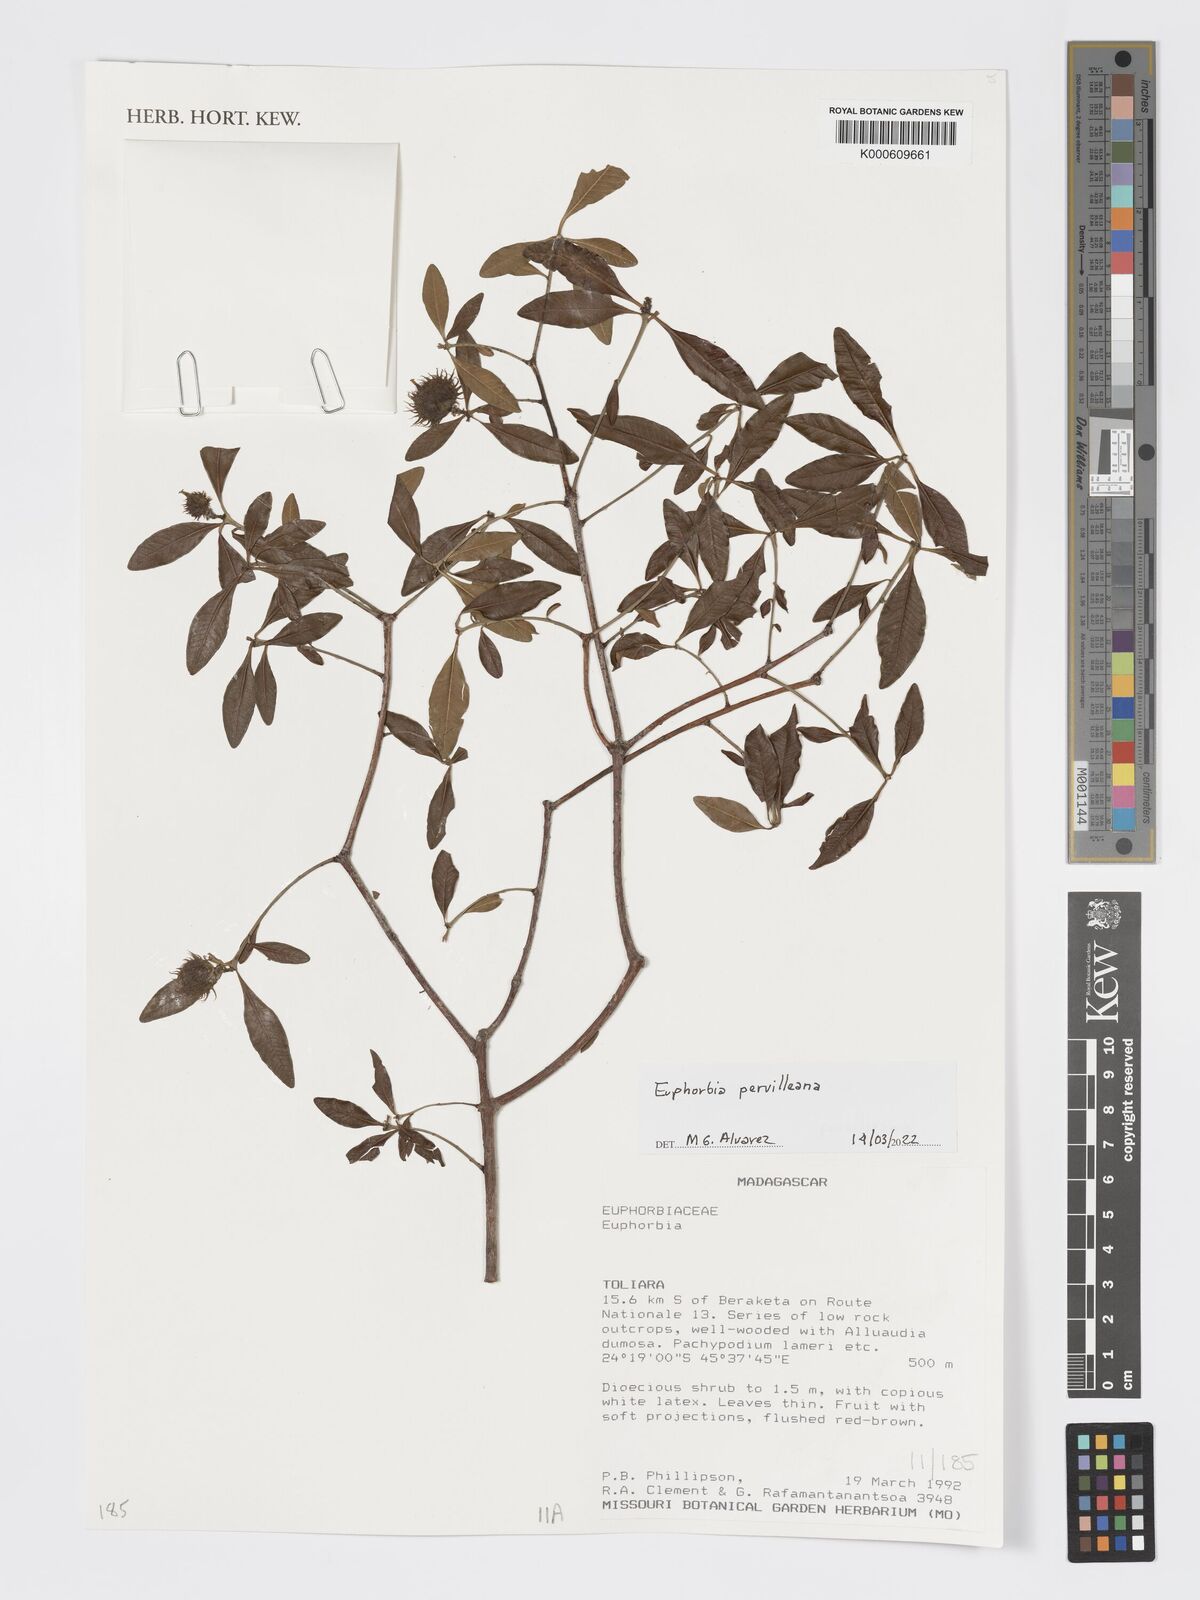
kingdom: Plantae
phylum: Tracheophyta
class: Magnoliopsida
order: Malpighiales
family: Euphorbiaceae
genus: Euphorbia
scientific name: Euphorbia pervilleana
